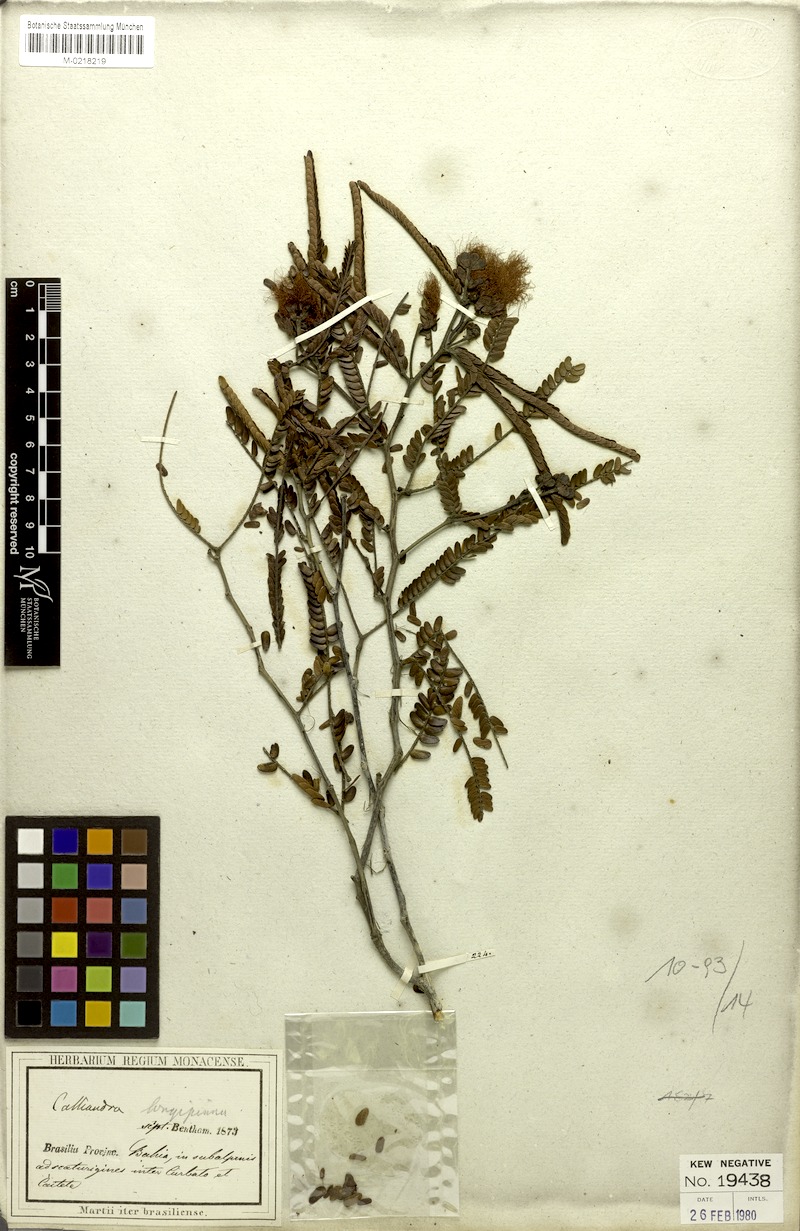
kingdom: Plantae
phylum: Tracheophyta
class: Magnoliopsida
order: Fabales
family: Fabaceae
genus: Calliandra
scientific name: Calliandra longipinna
